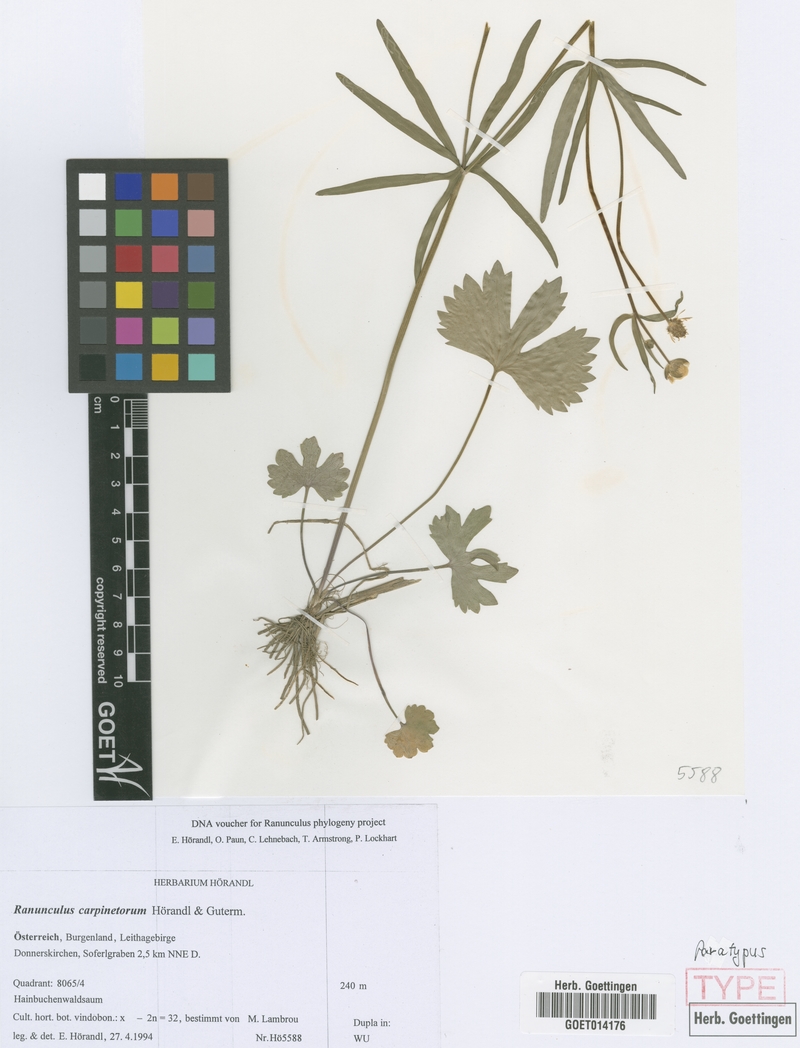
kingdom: Plantae
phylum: Tracheophyta
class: Magnoliopsida
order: Ranunculales
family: Ranunculaceae
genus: Ranunculus
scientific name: Ranunculus carpinetorum
